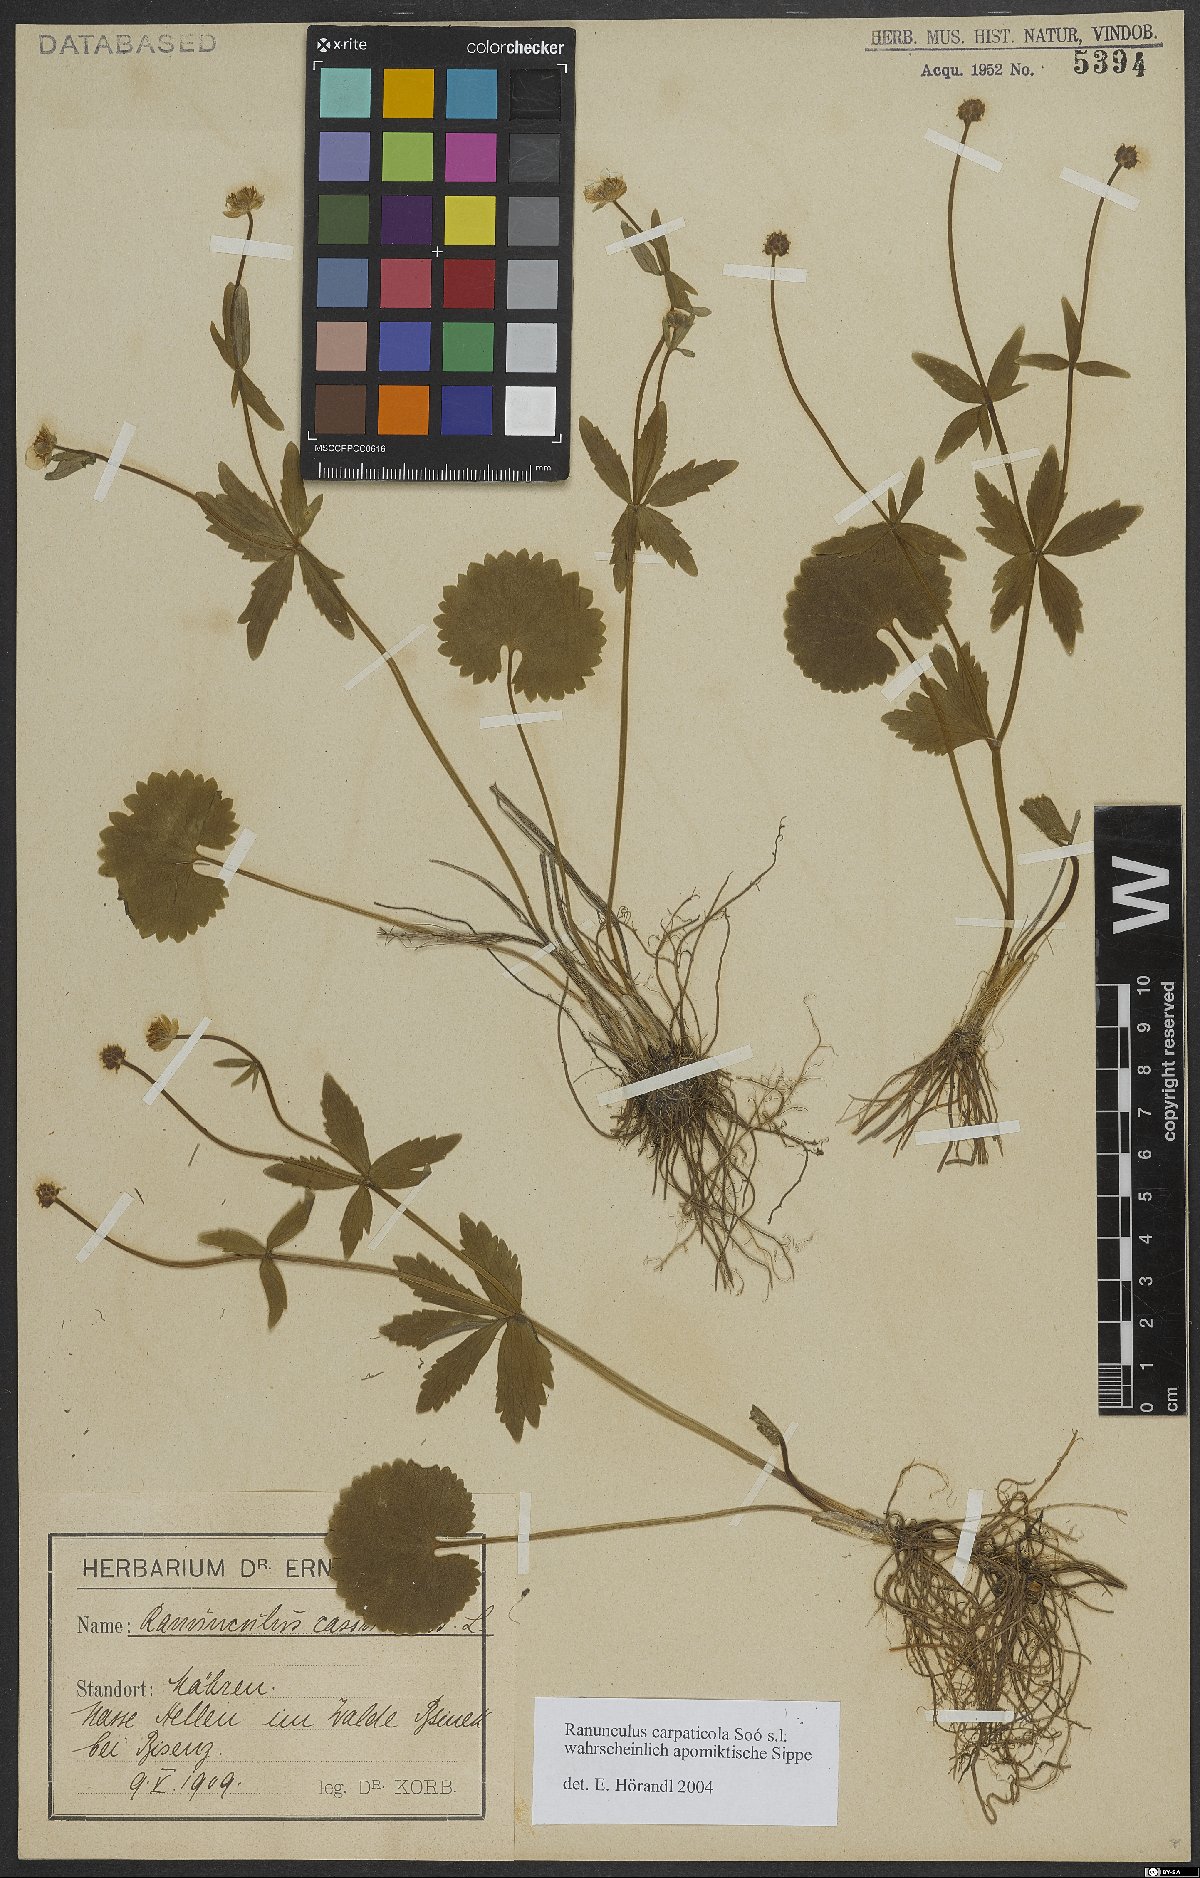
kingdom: Plantae
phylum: Tracheophyta
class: Magnoliopsida
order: Ranunculales
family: Ranunculaceae
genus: Ranunculus
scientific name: Ranunculus cassubicifolius
